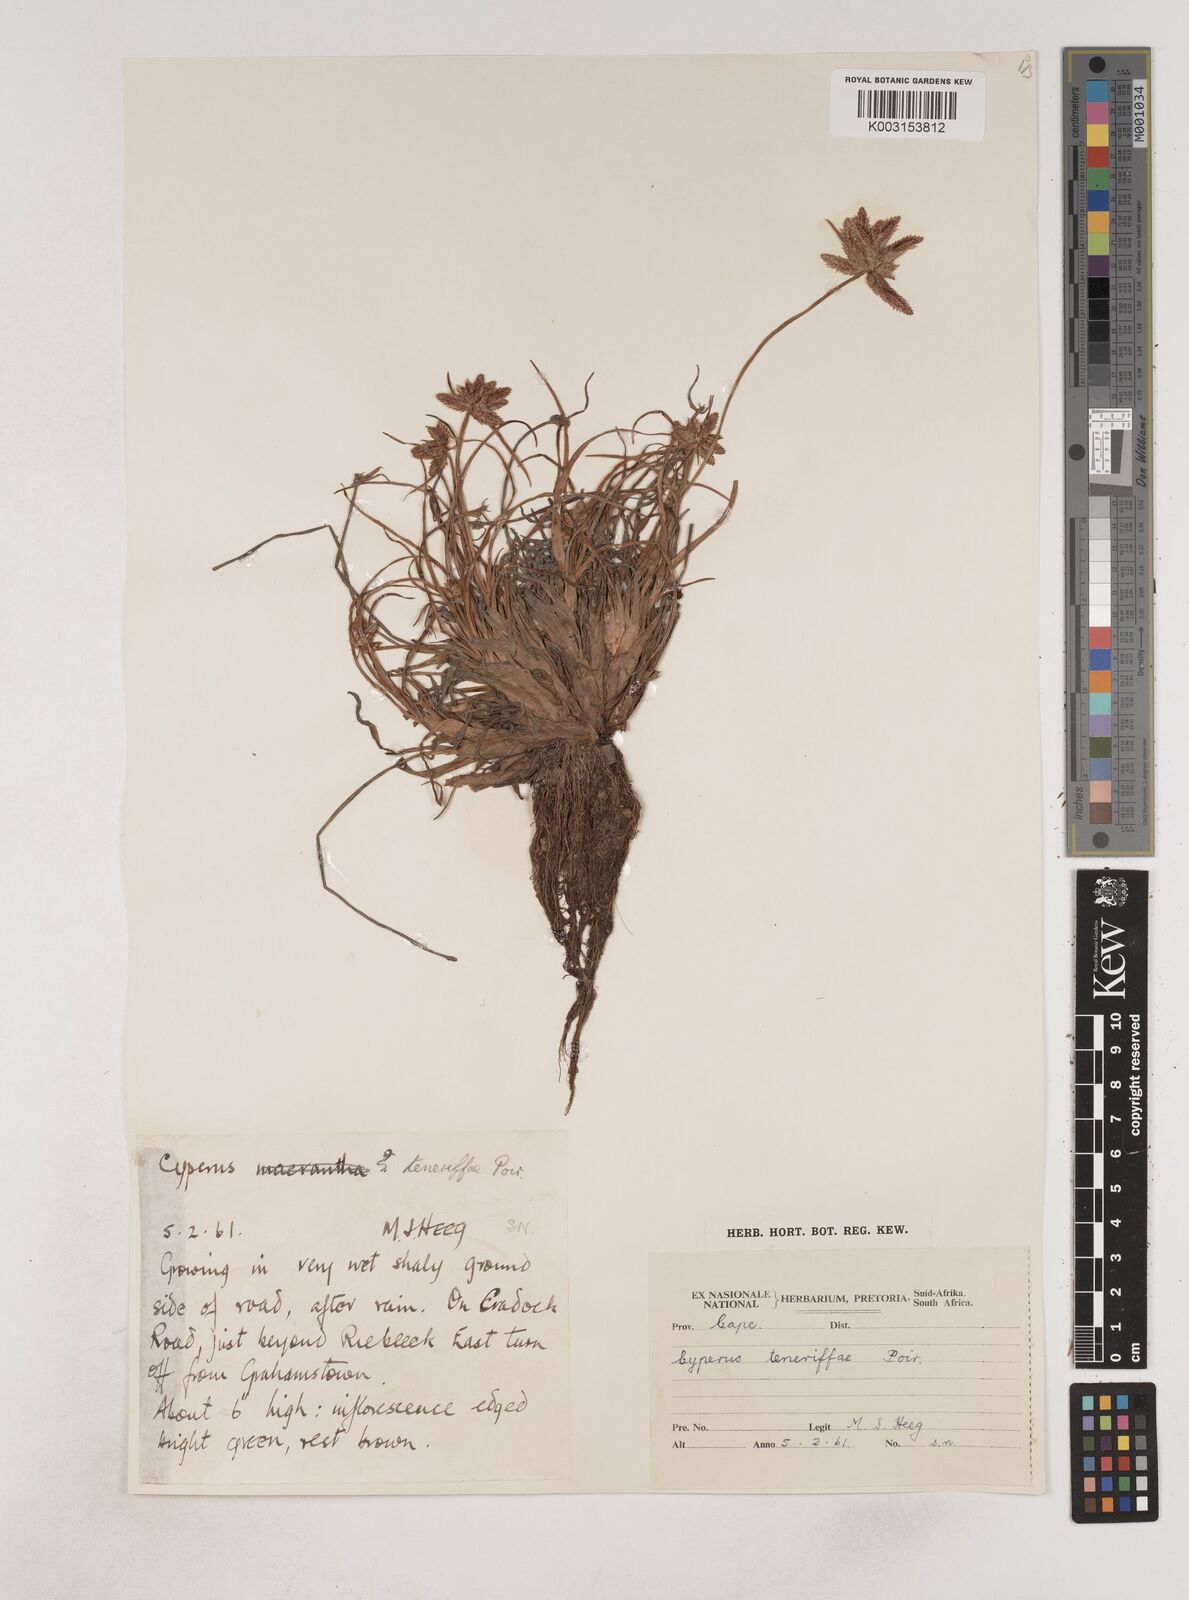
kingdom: Plantae
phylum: Tracheophyta
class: Liliopsida
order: Poales
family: Cyperaceae
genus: Cyperus
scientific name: Cyperus rubicundus
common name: Coco-grass
